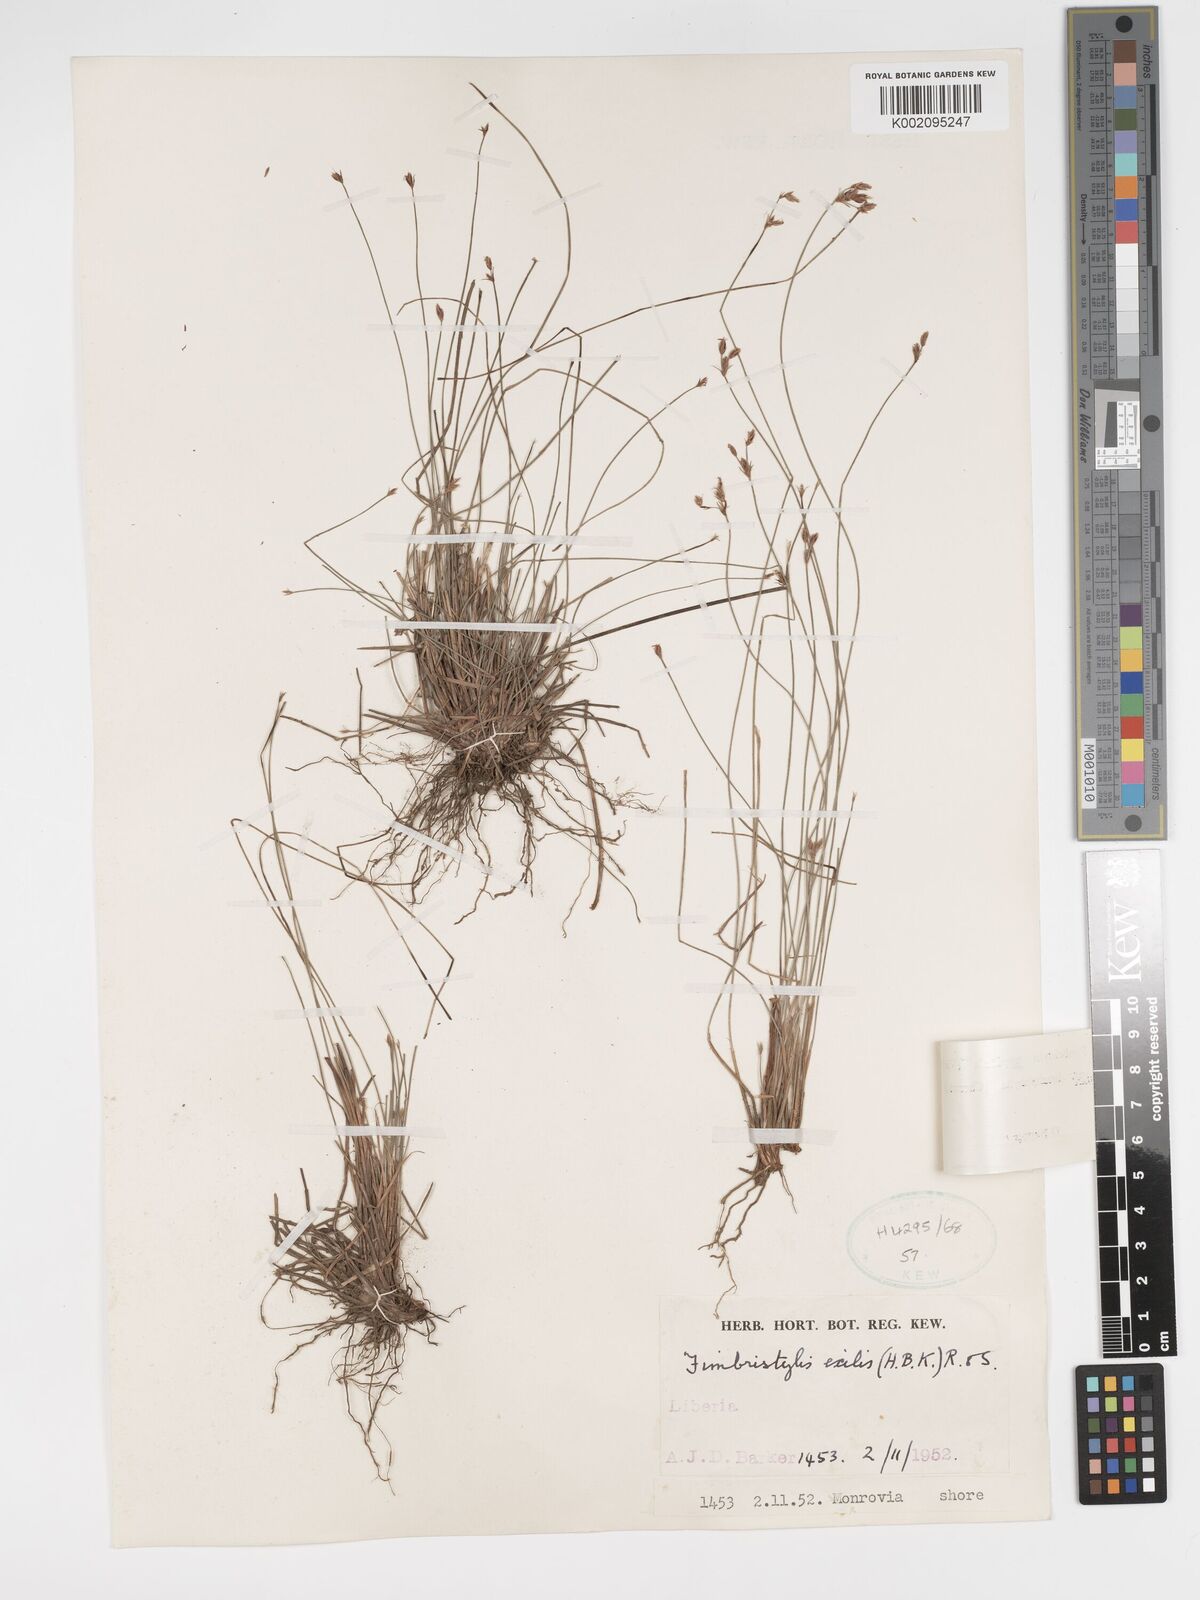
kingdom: Plantae
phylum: Tracheophyta
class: Liliopsida
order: Poales
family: Cyperaceae
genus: Bulbostylis
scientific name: Bulbostylis hispidula
